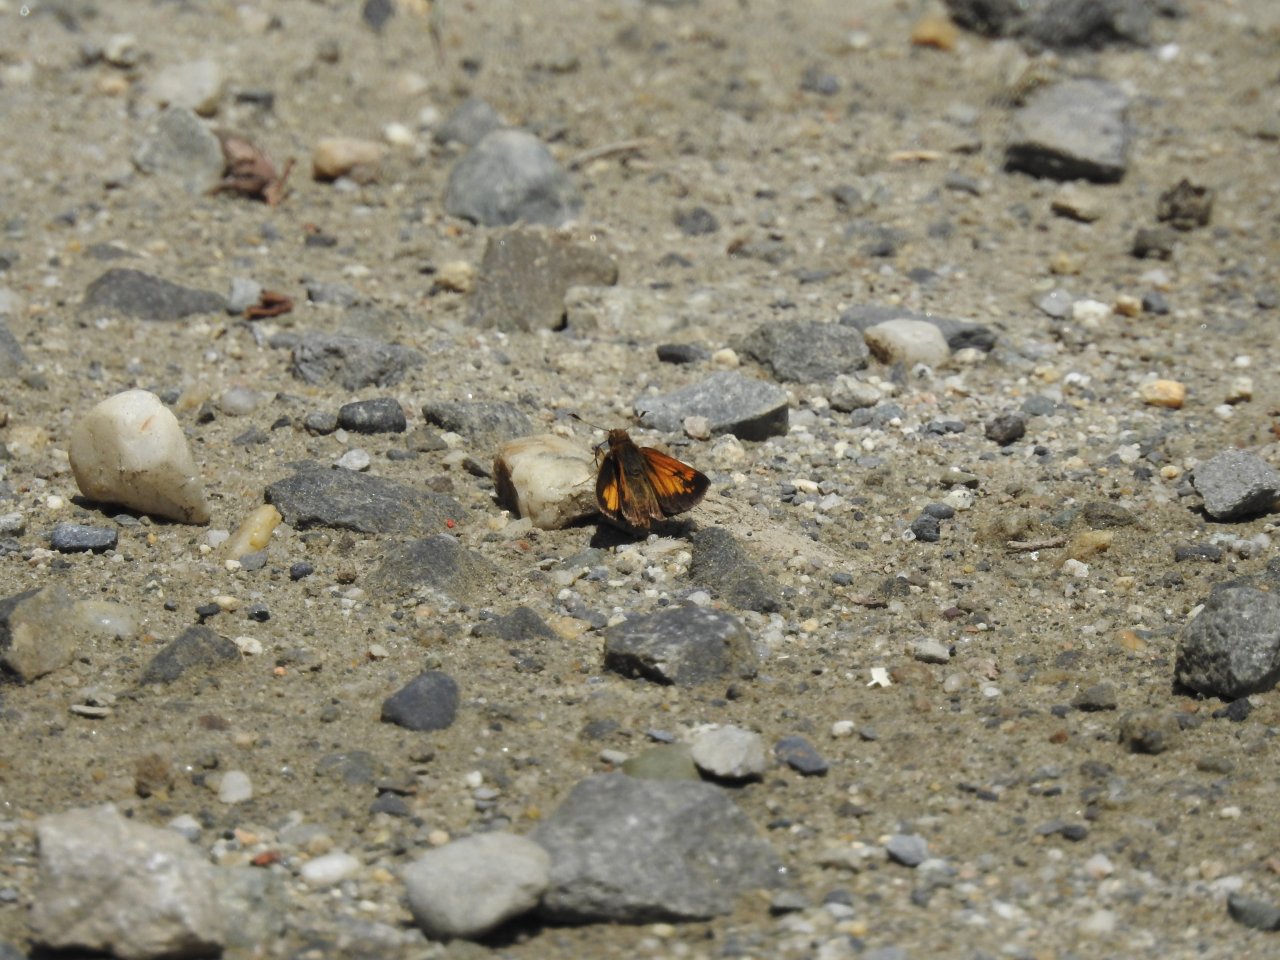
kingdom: Animalia
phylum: Arthropoda
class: Insecta
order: Lepidoptera
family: Hesperiidae
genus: Lon
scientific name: Lon hobomok
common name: Hobomok Skipper
